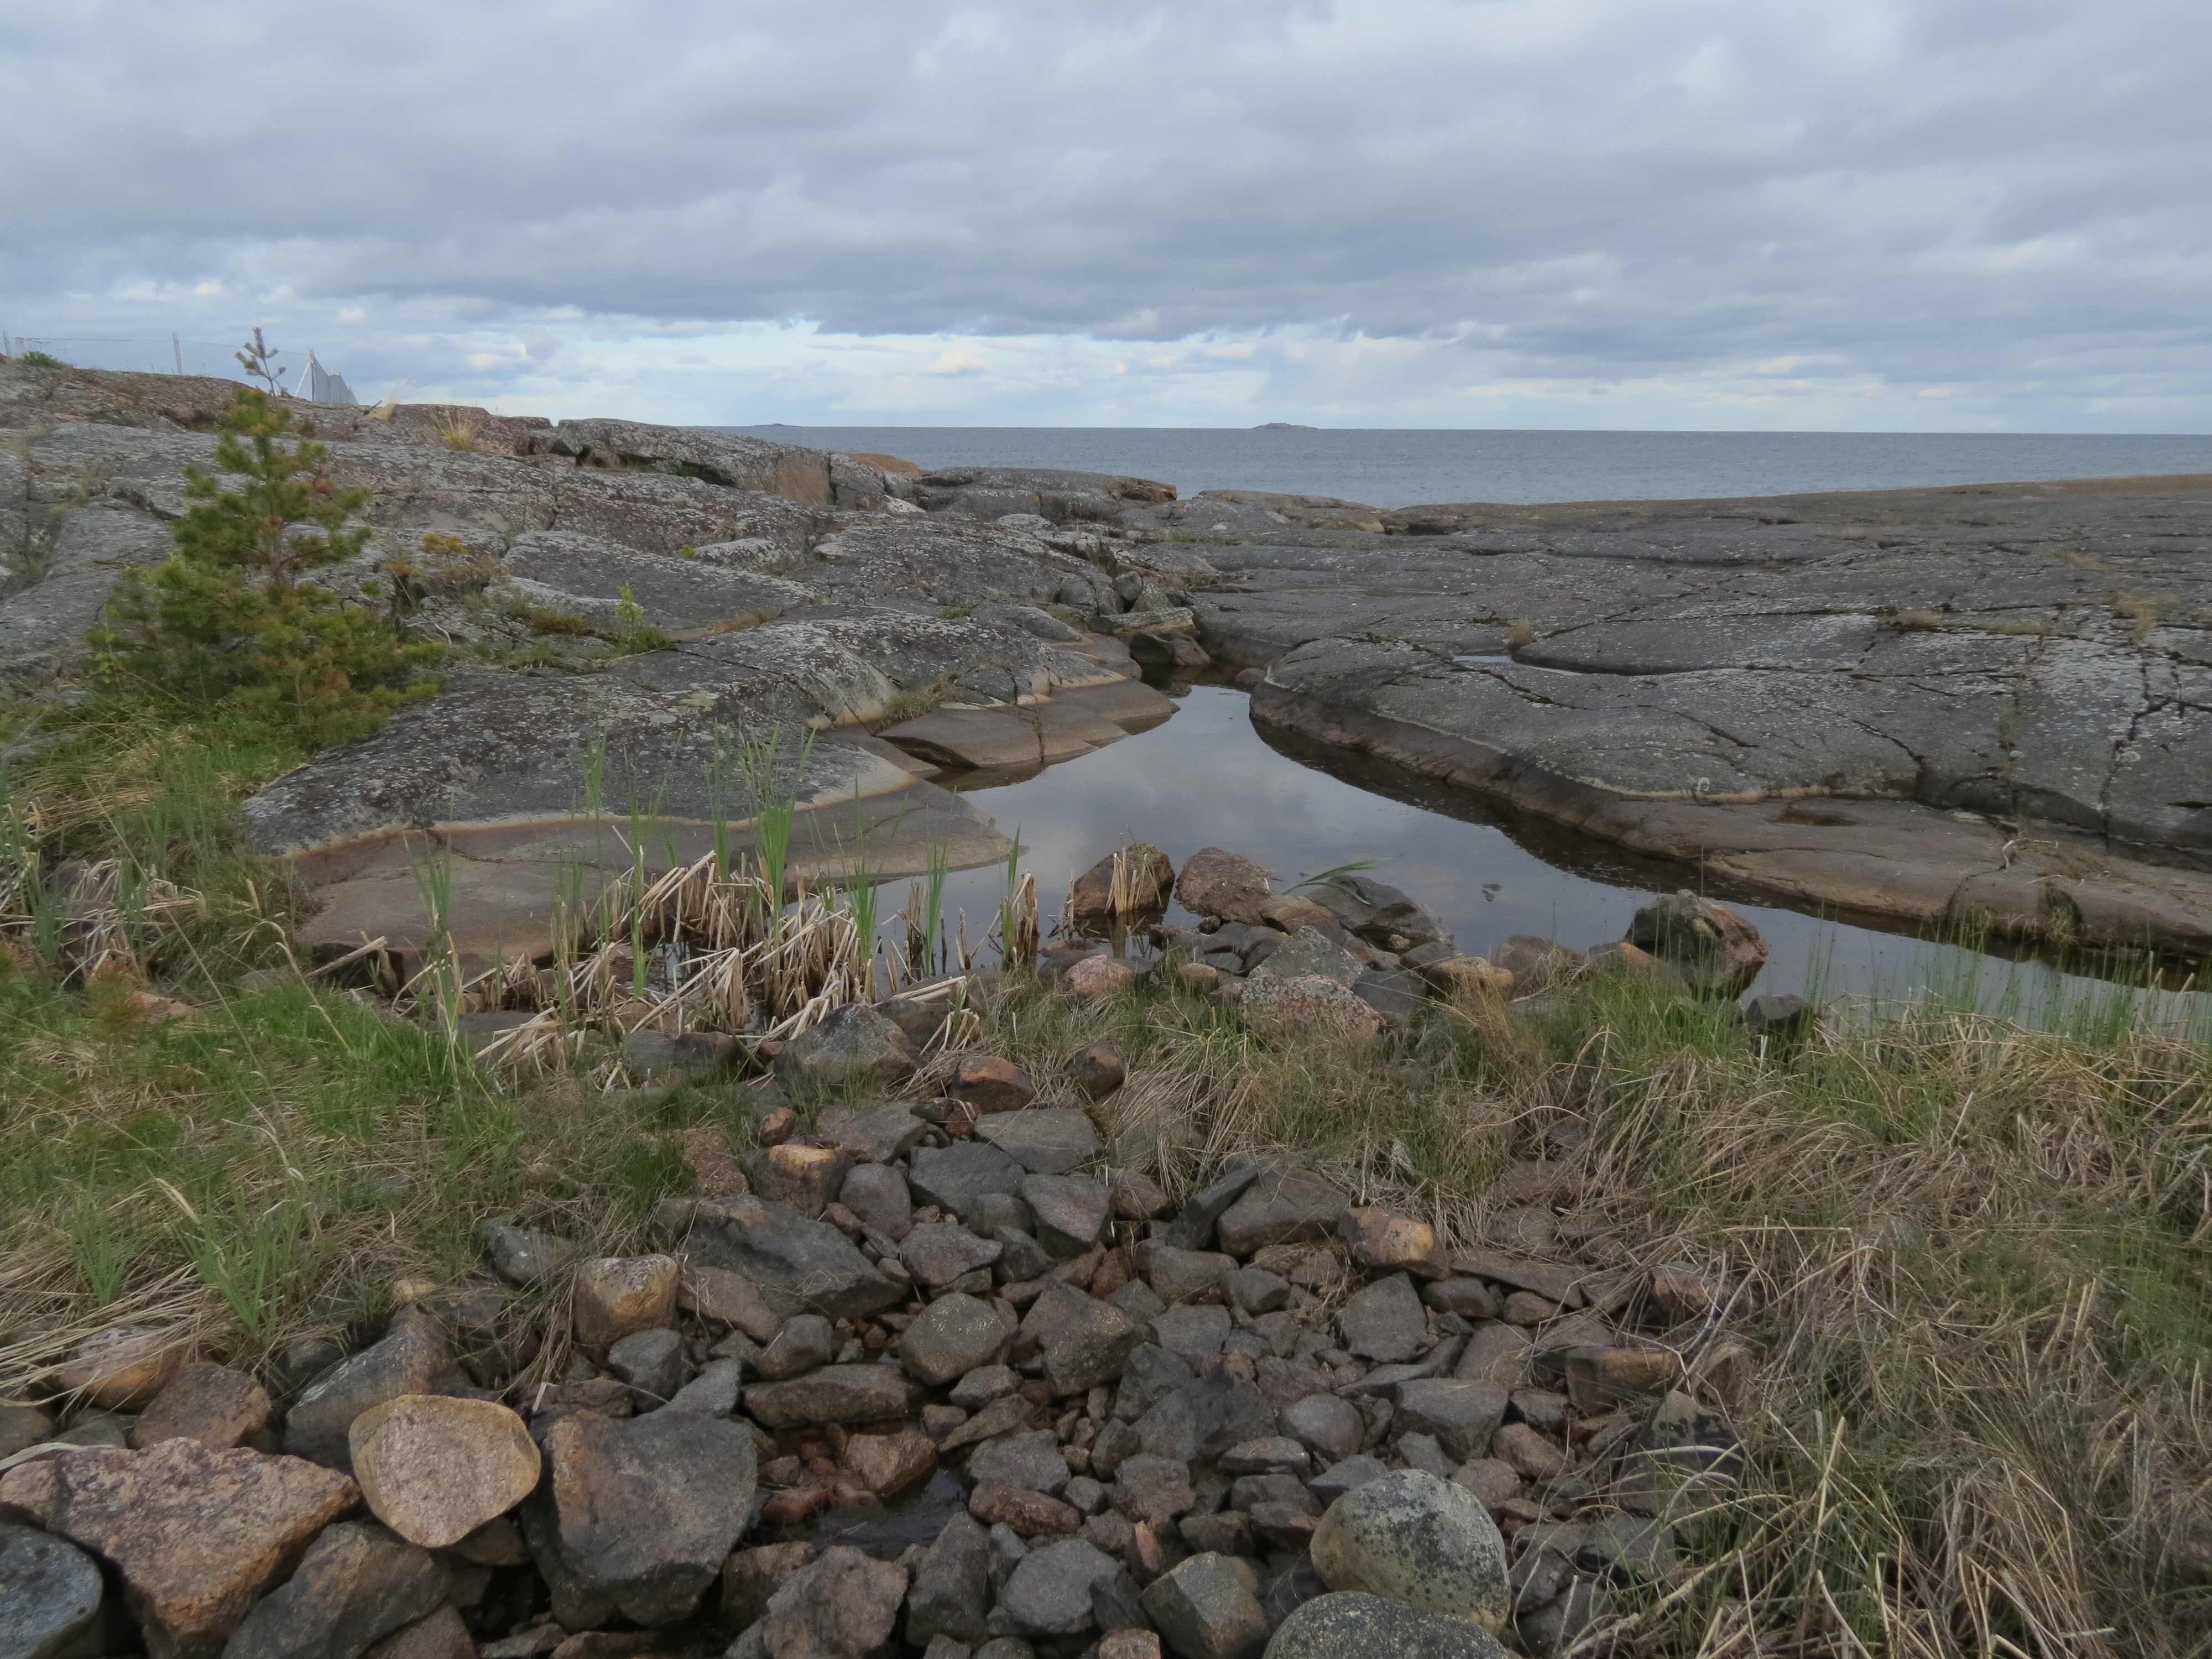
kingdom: Animalia
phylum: Chordata
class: Amphibia
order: Caudata
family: Salamandridae
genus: Lissotriton
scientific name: Lissotriton vulgaris
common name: Smooth newt
